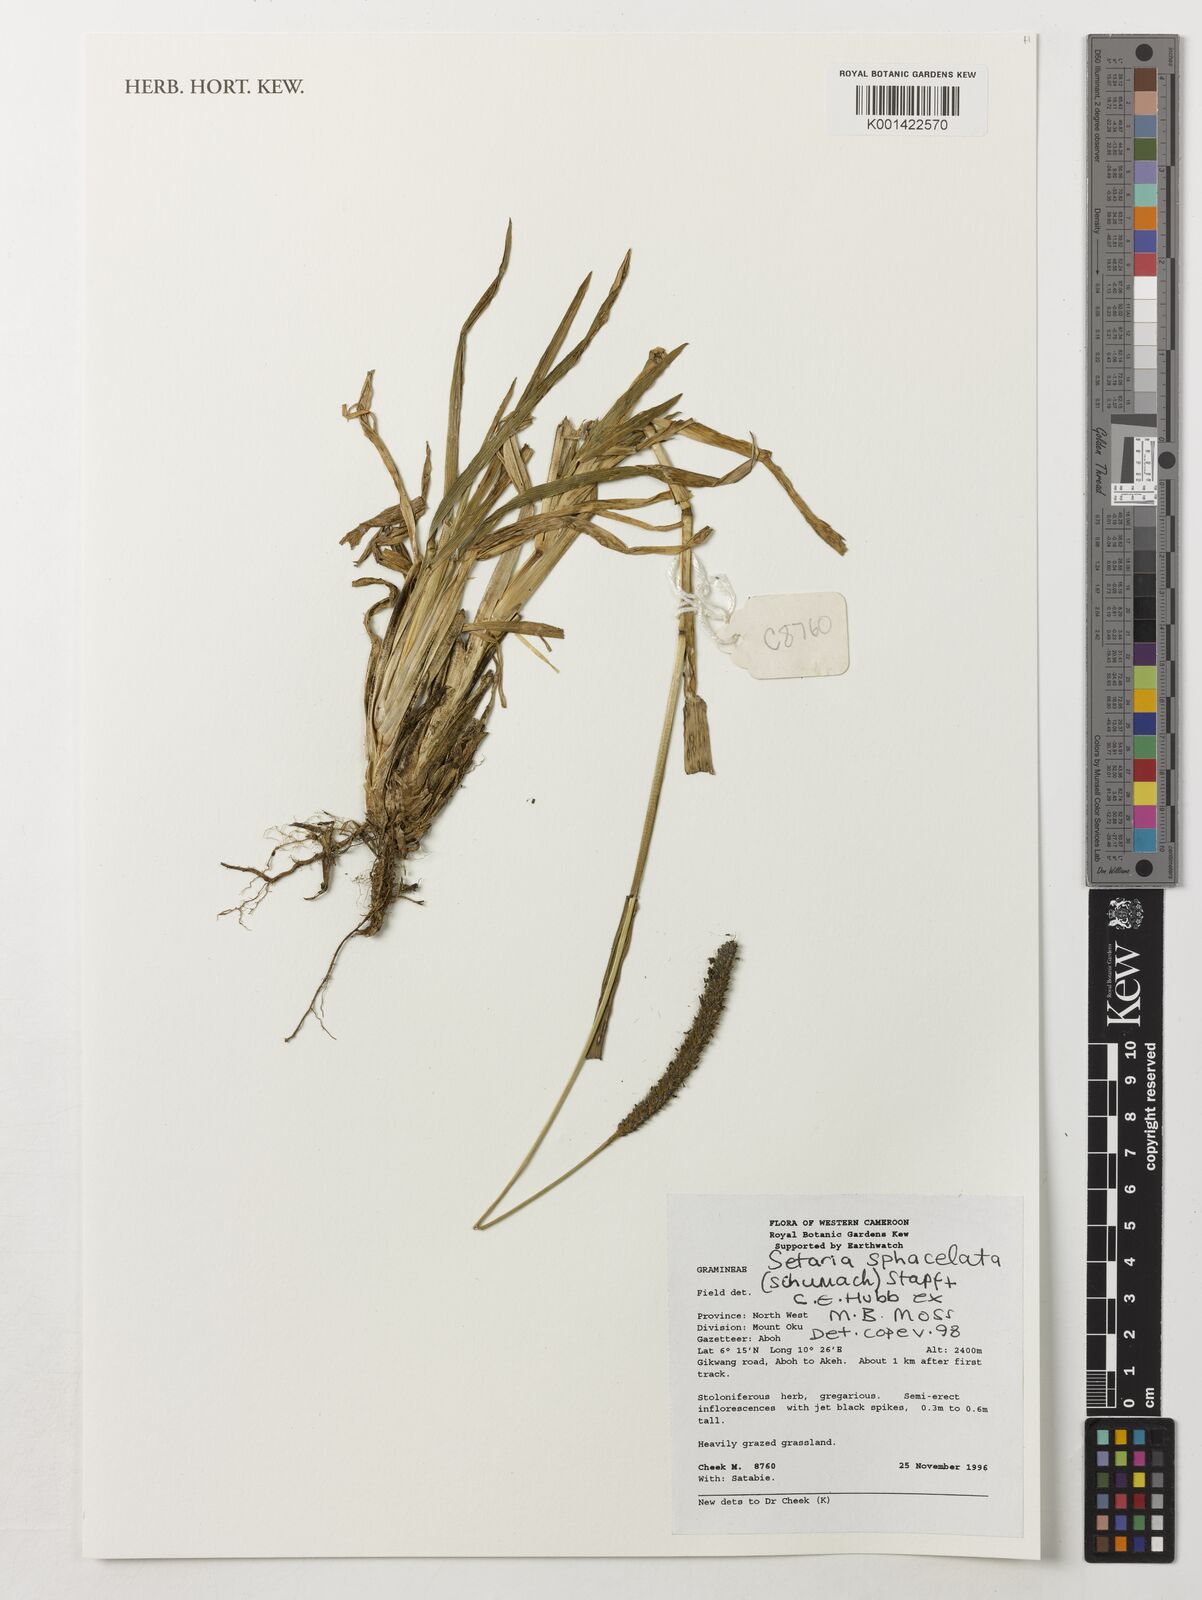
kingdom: Plantae
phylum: Tracheophyta
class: Liliopsida
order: Poales
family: Poaceae
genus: Setaria
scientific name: Setaria sphacelata
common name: African bristlegrass
